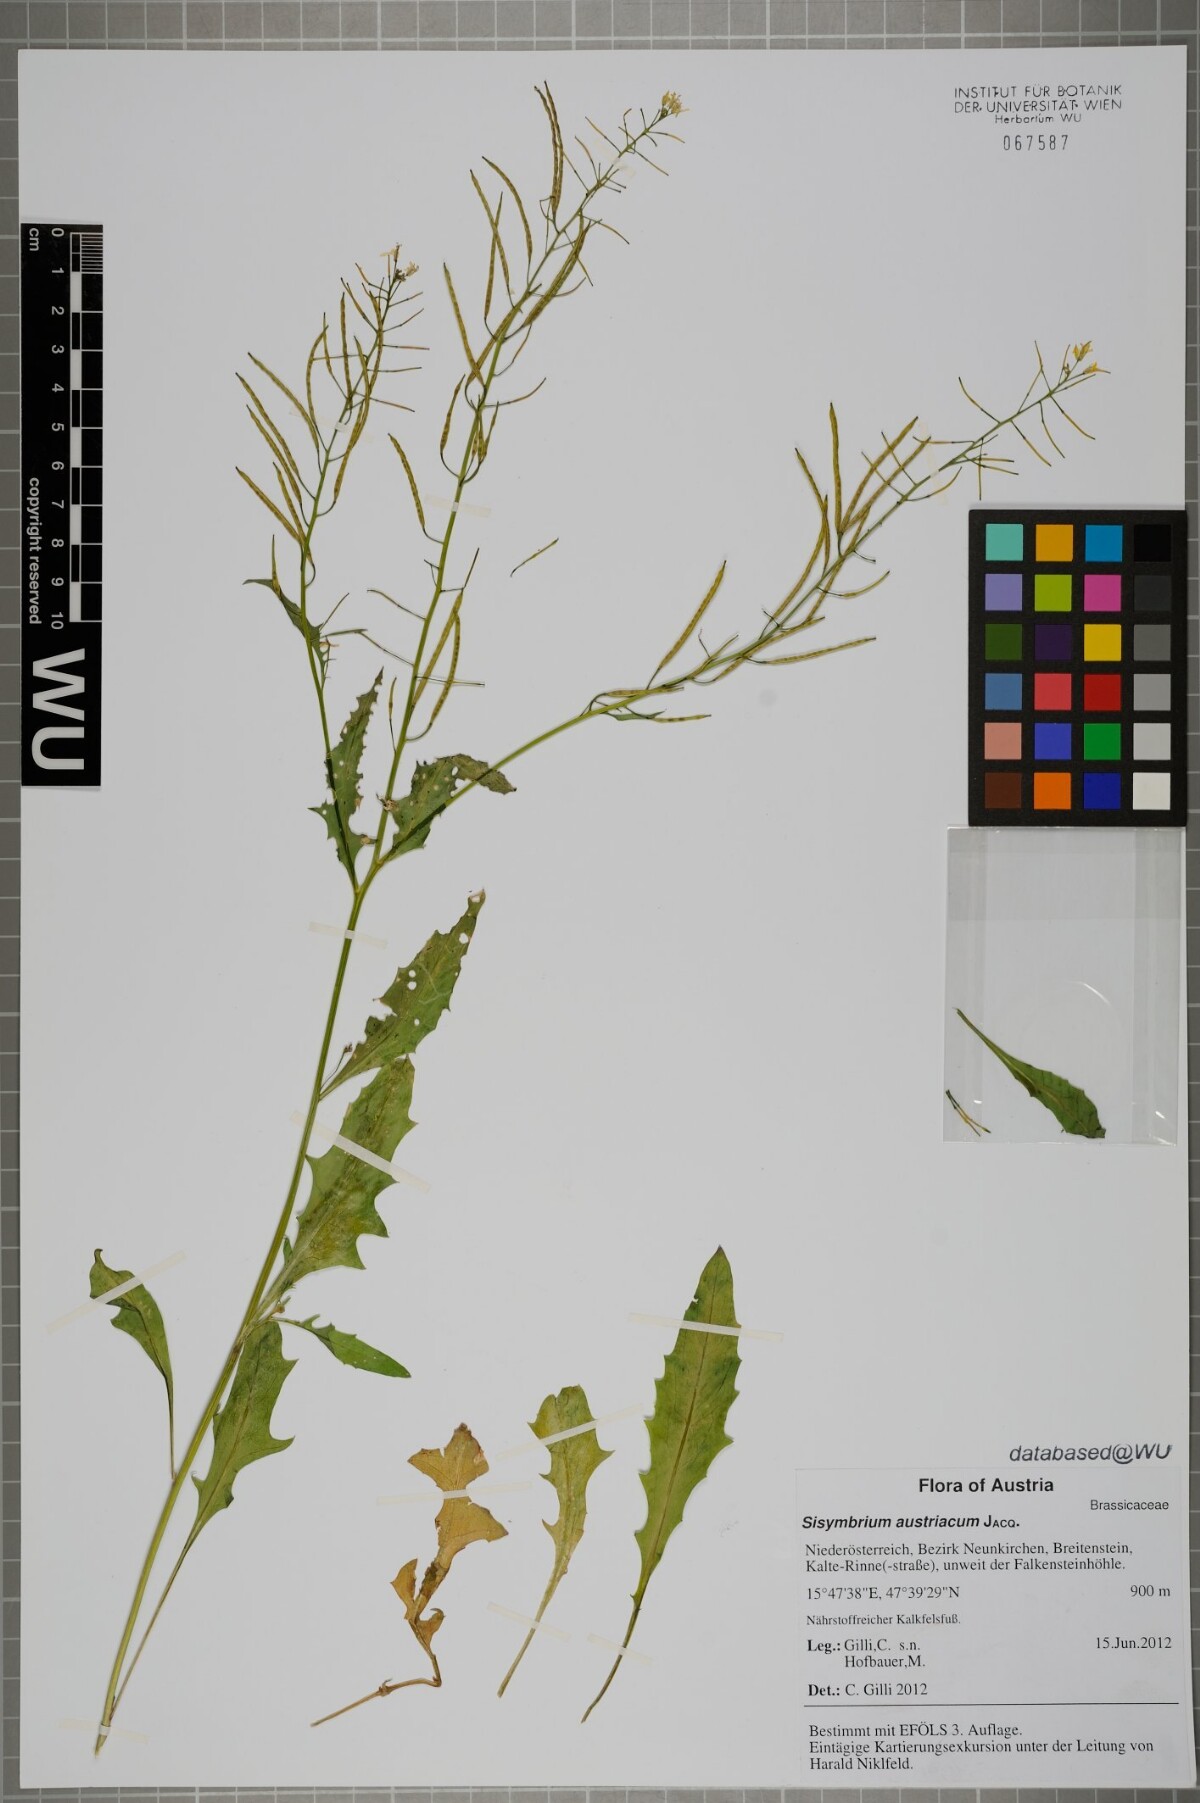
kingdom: Plantae
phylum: Tracheophyta
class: Magnoliopsida
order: Brassicales
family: Brassicaceae
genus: Sisymbrium
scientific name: Sisymbrium austriacum
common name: Jeweled rocket
